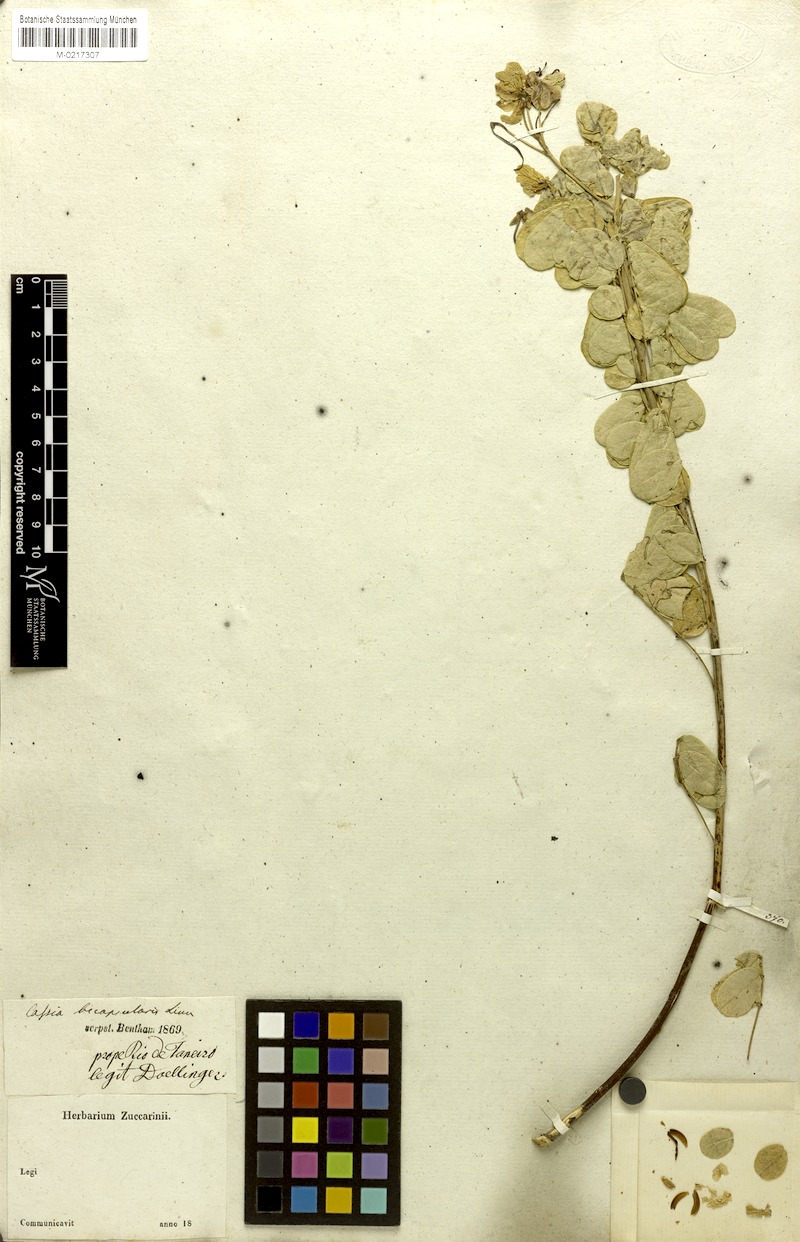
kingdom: Plantae
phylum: Tracheophyta
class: Magnoliopsida
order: Fabales
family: Fabaceae
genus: Senna
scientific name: Senna bicapsularis
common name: Christmasbush
